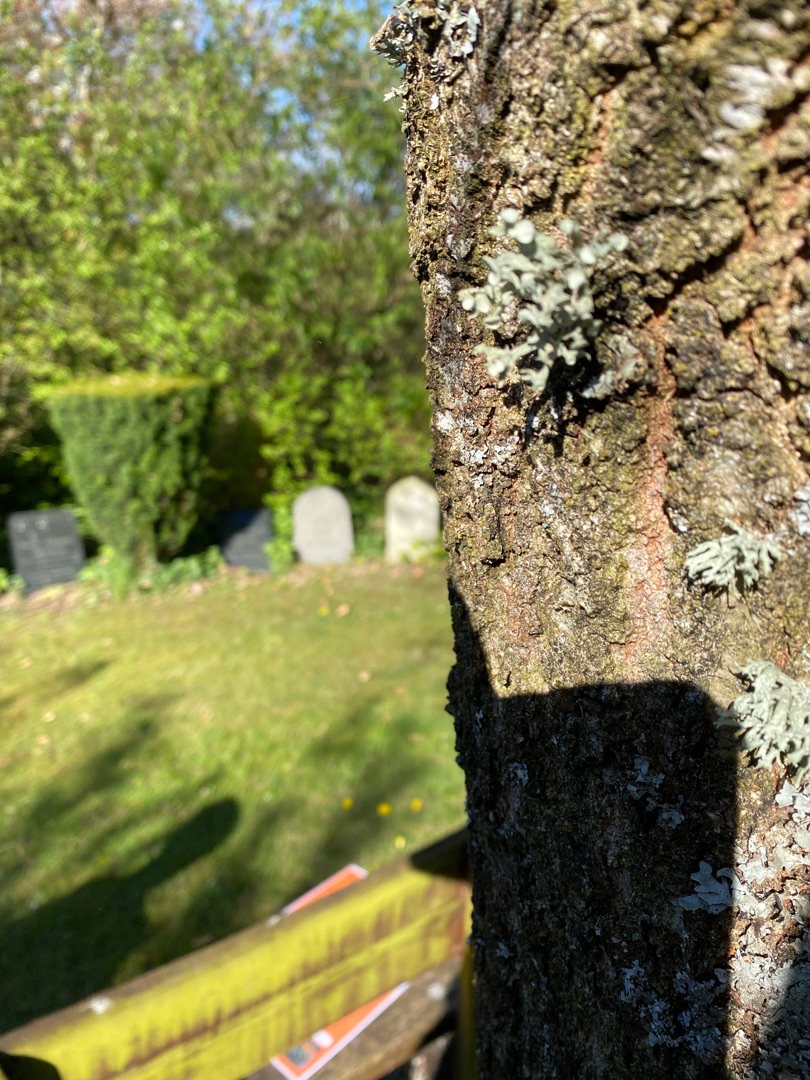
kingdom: Fungi
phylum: Ascomycota
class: Lecanoromycetes
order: Lecanorales
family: Ramalinaceae
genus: Ramalina
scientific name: Ramalina fastigiata
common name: Tue-grenlav
